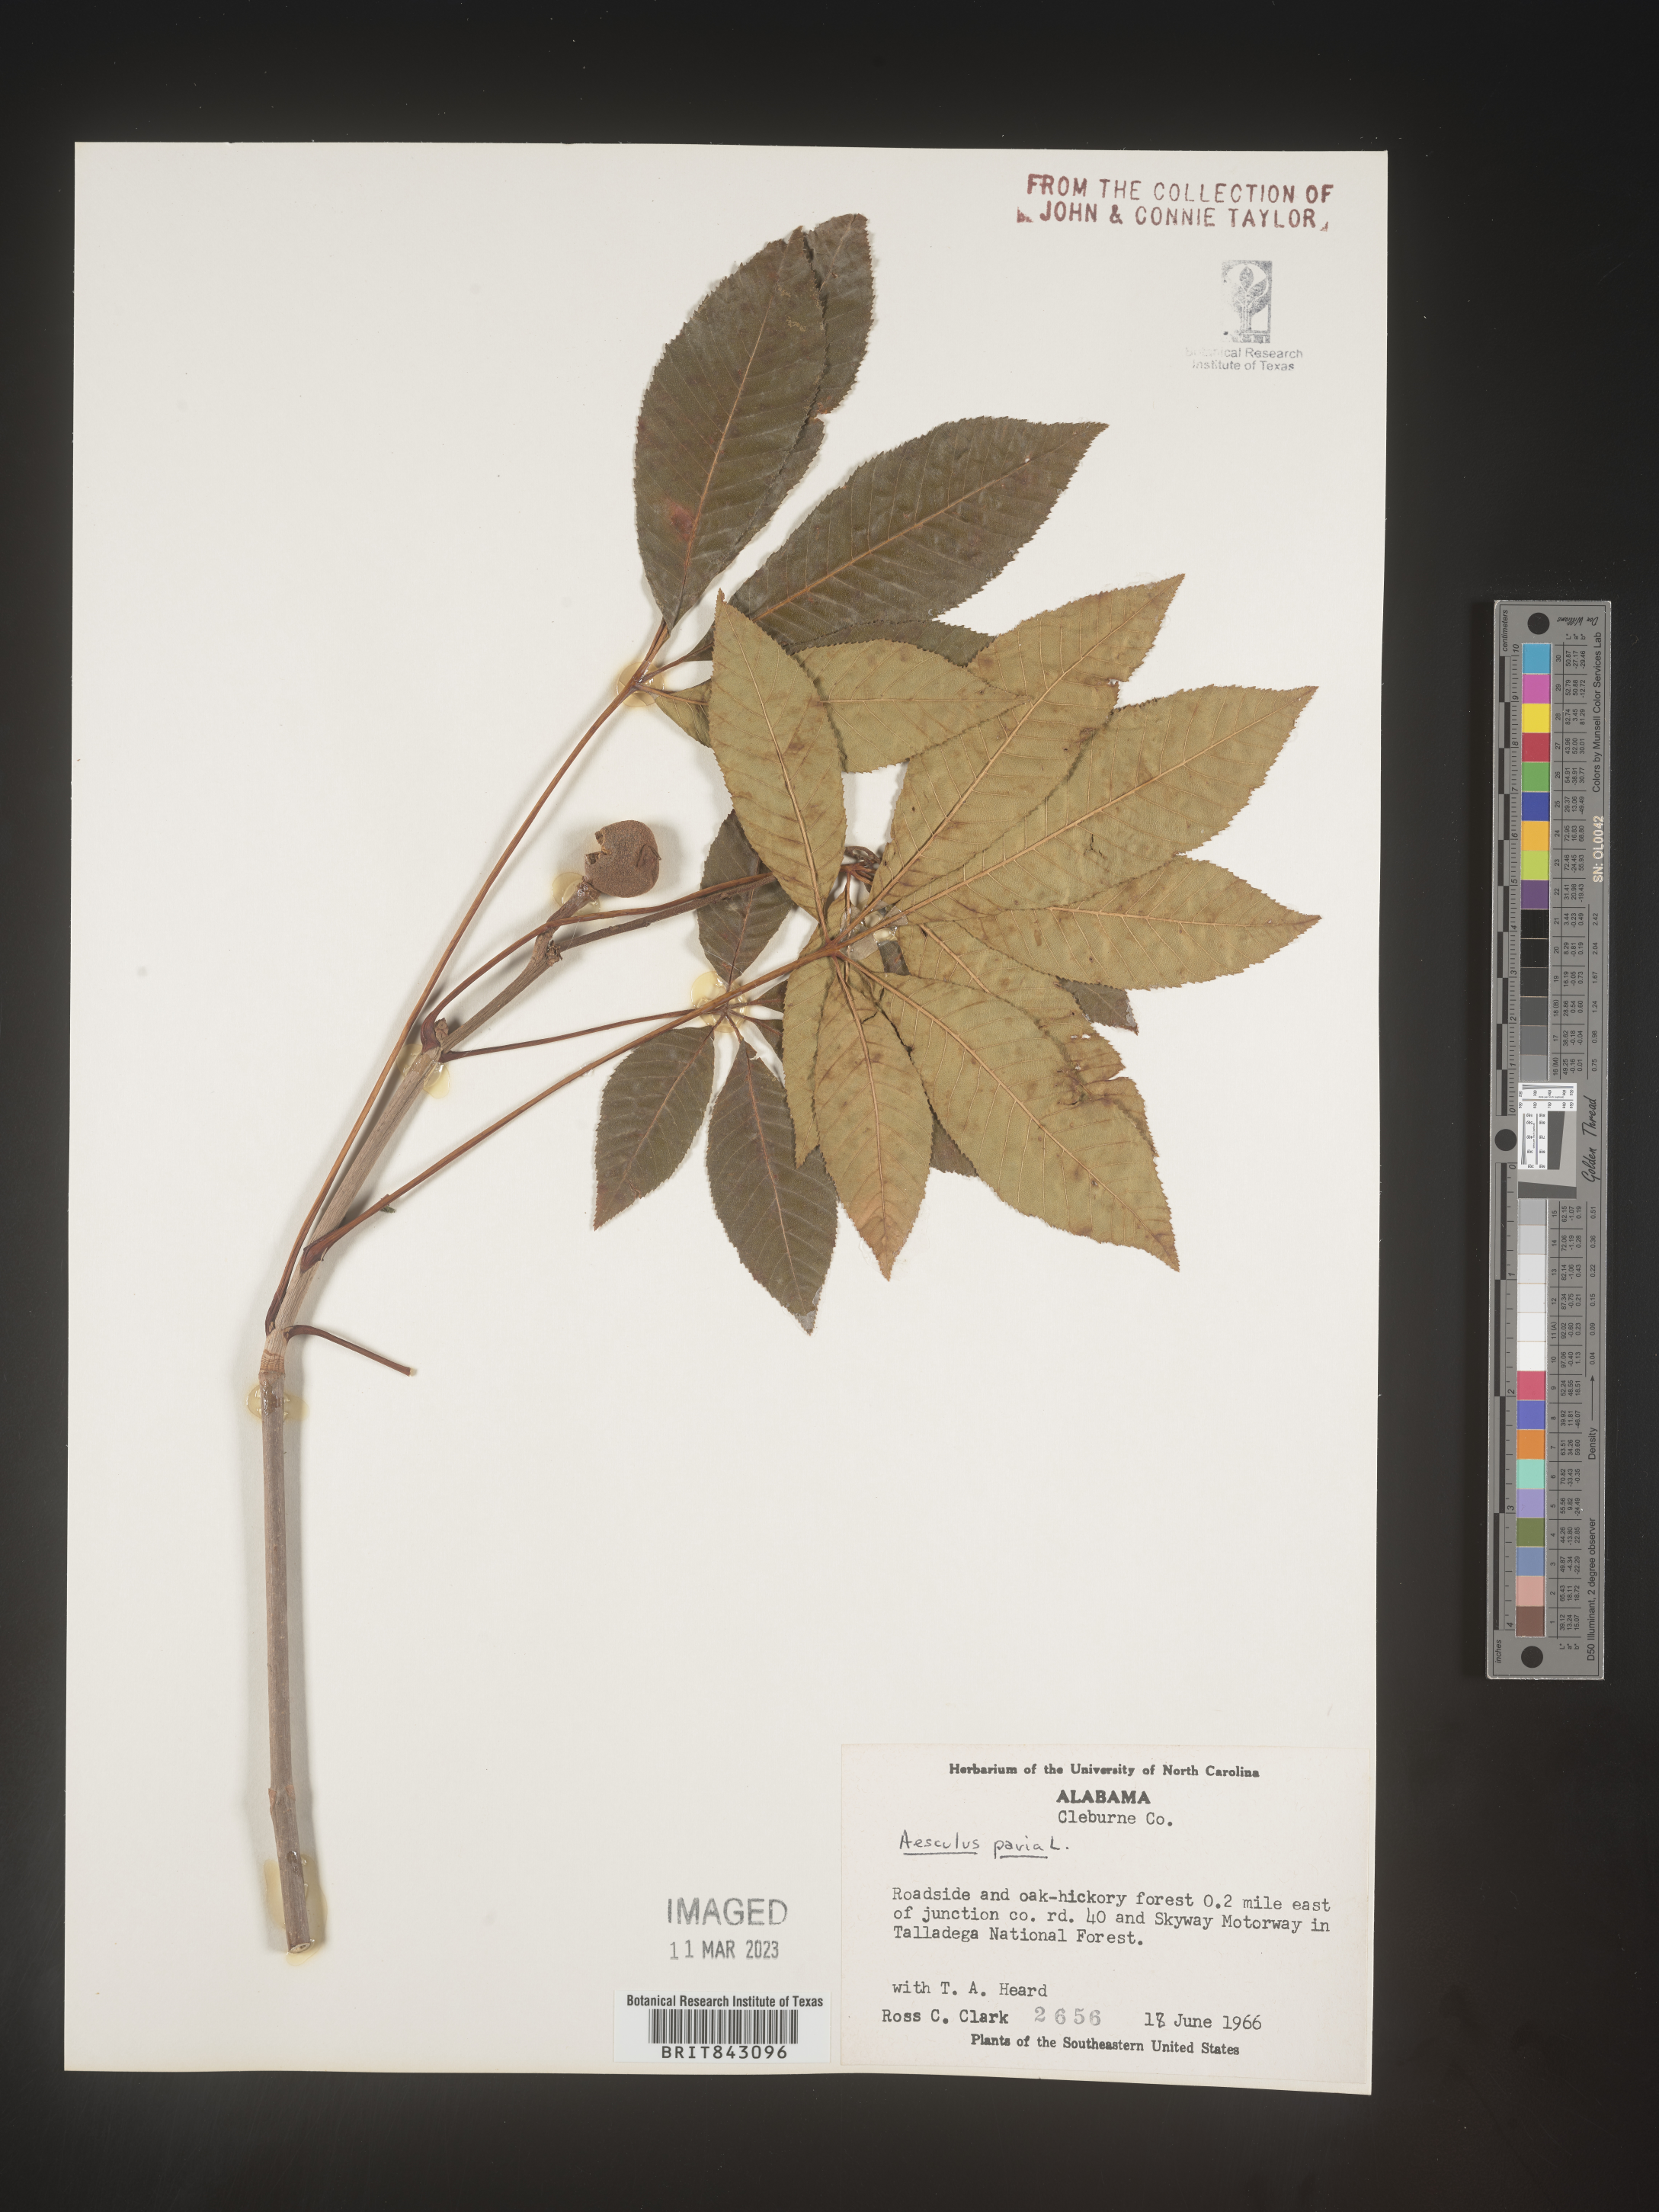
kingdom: Plantae
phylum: Tracheophyta
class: Magnoliopsida
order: Sapindales
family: Sapindaceae
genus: Aesculus
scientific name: Aesculus pavia
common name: Red buckeye
